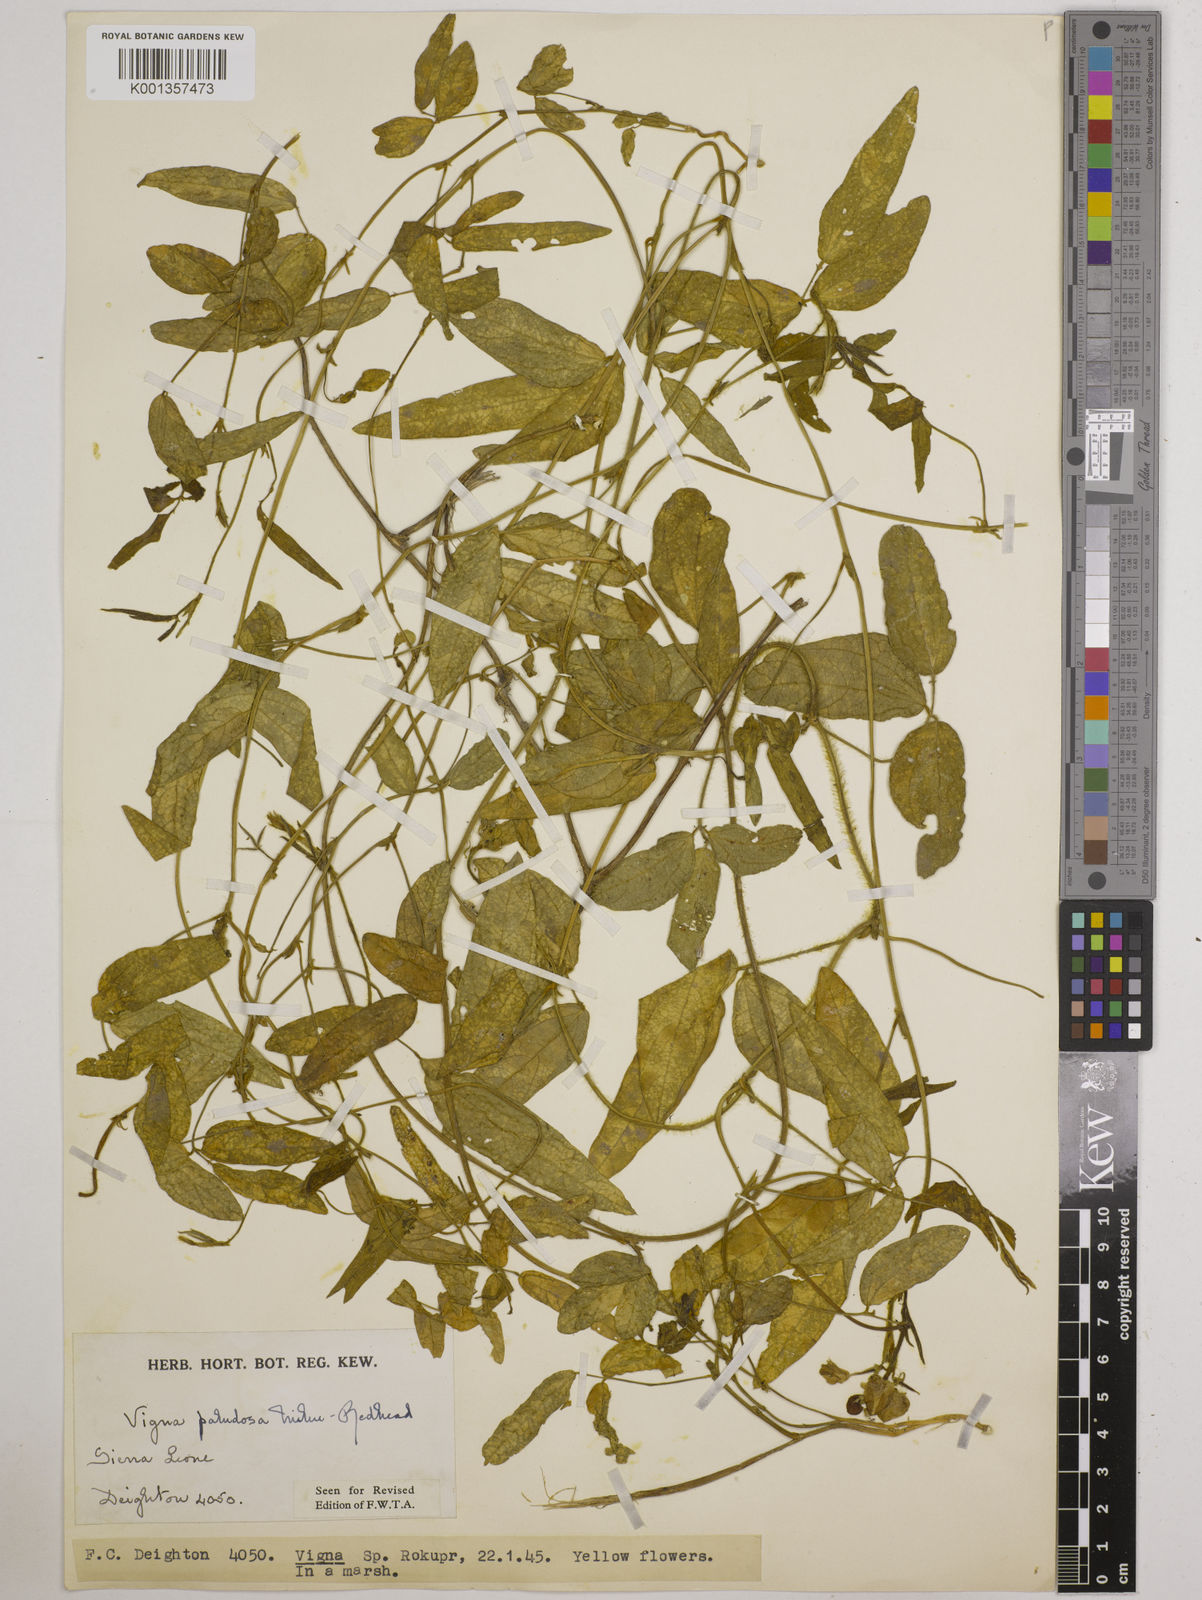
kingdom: Plantae
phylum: Tracheophyta
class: Magnoliopsida
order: Fabales
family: Fabaceae
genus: Vigna
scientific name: Vigna longifolia
